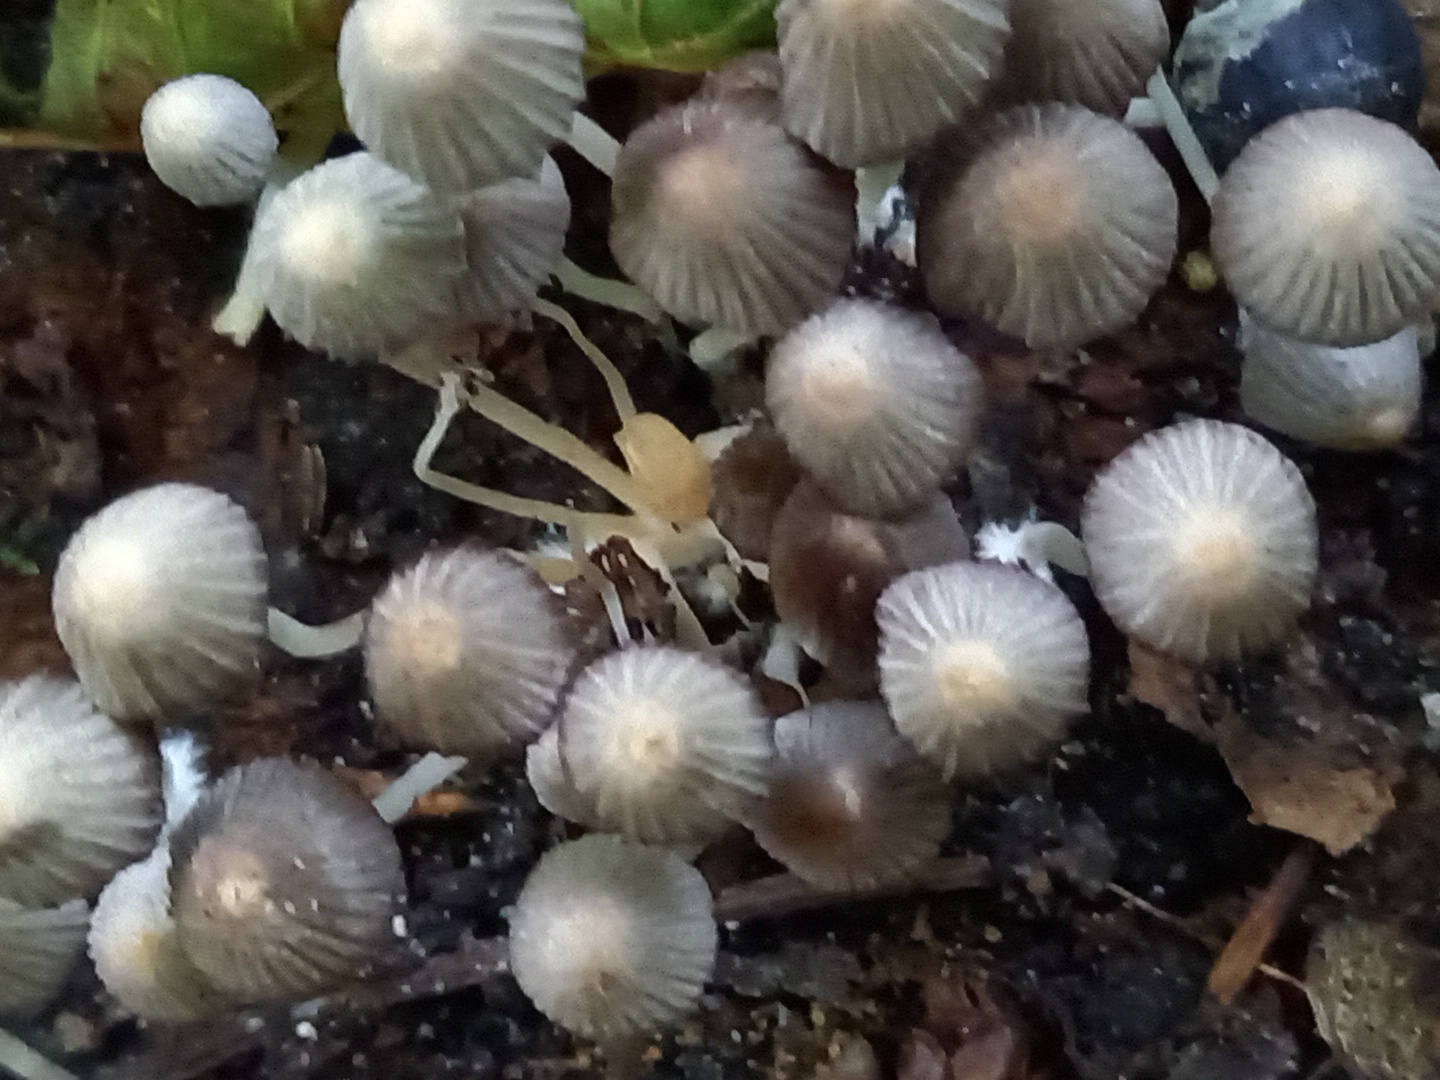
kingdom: Fungi
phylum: Basidiomycota
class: Agaricomycetes
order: Agaricales
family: Psathyrellaceae
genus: Coprinellus
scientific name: Coprinellus disseminatus
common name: bredsået blækhat
